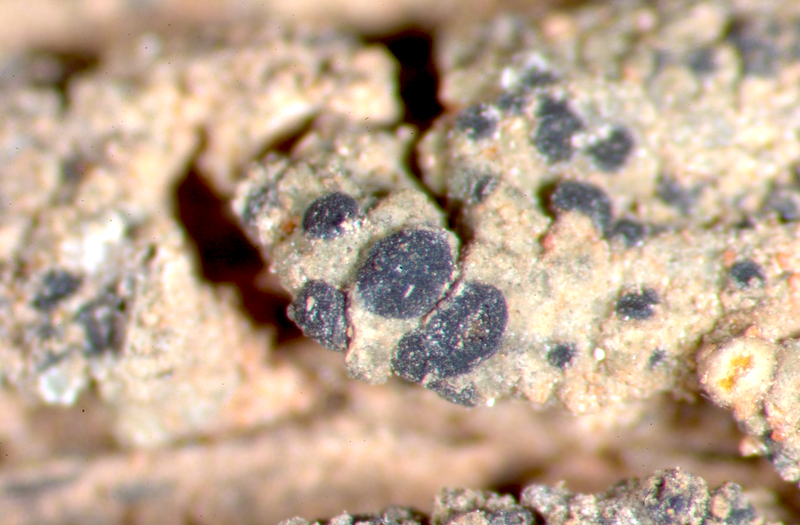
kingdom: Fungi
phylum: Ascomycota
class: Lecanoromycetes
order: Caliciales
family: Caliciaceae
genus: Buellia
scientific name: Buellia
